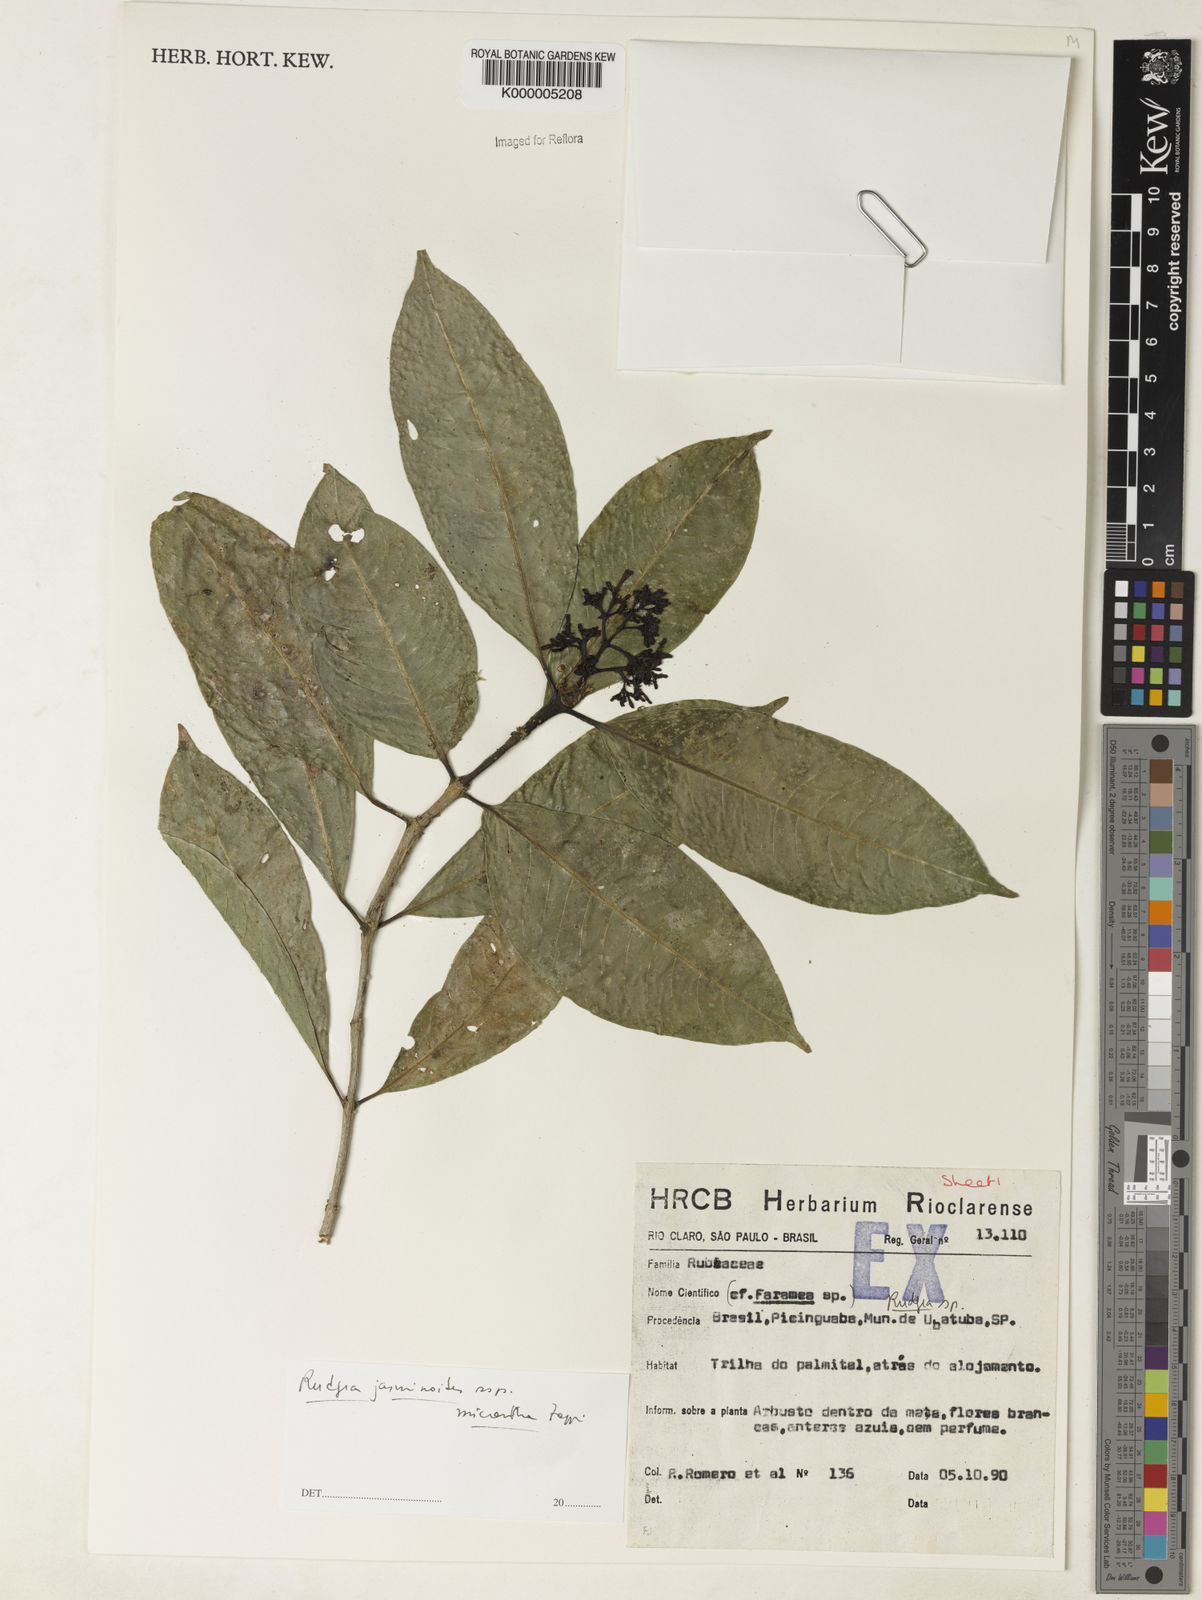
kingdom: Plantae
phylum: Tracheophyta
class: Magnoliopsida
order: Gentianales
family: Rubiaceae
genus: Rudgea
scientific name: Rudgea jasminoides
